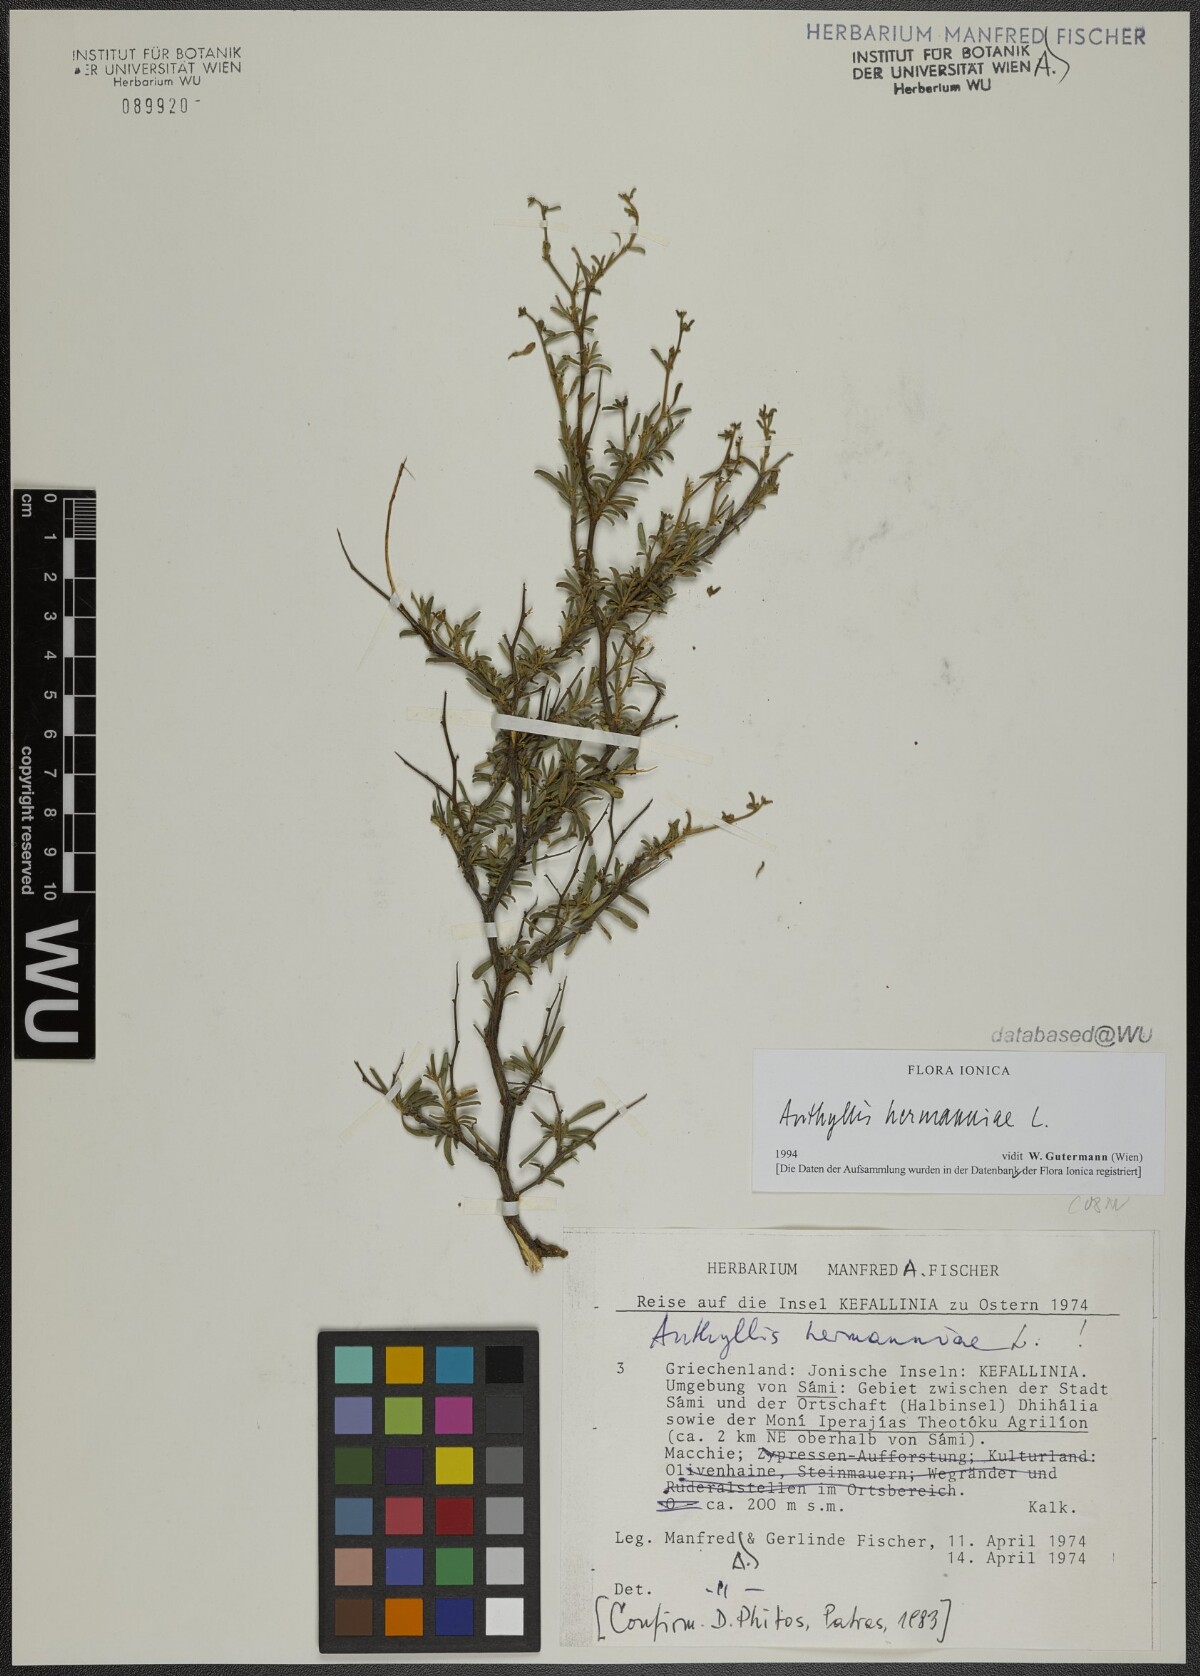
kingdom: Plantae
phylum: Tracheophyta
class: Magnoliopsida
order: Fabales
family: Fabaceae
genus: Anthyllis
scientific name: Anthyllis hermanniae
